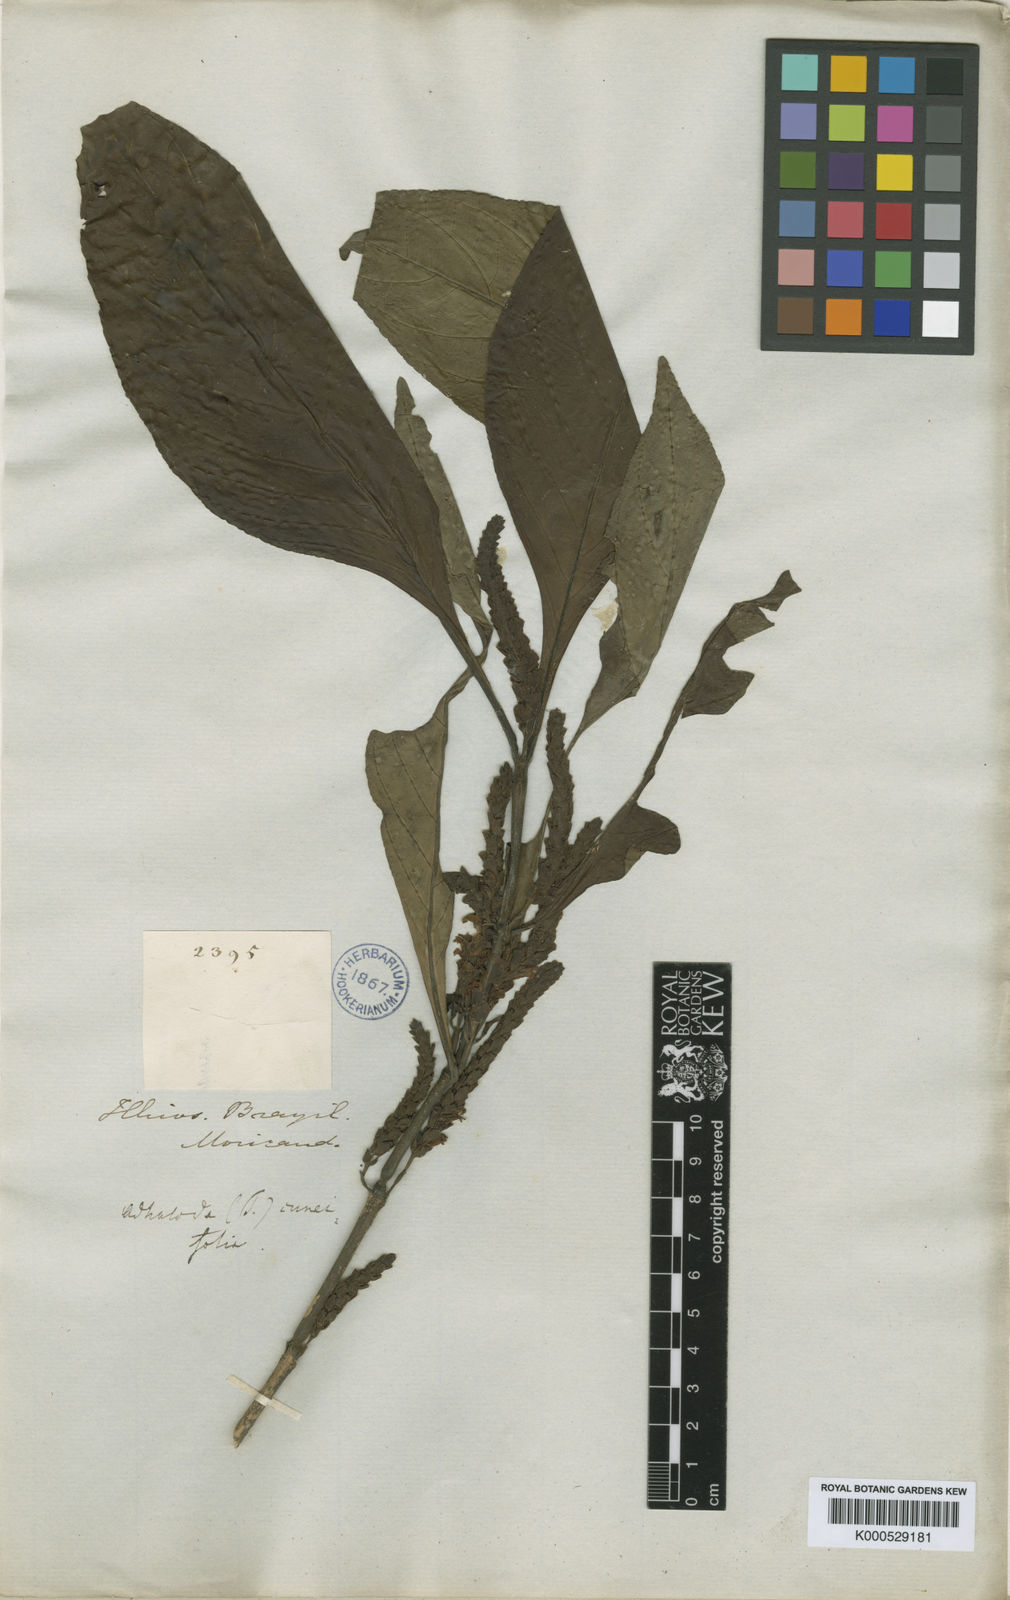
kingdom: Plantae
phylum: Tracheophyta
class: Magnoliopsida
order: Lamiales
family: Acanthaceae
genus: Justicia
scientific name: Justicia cuneifolia
